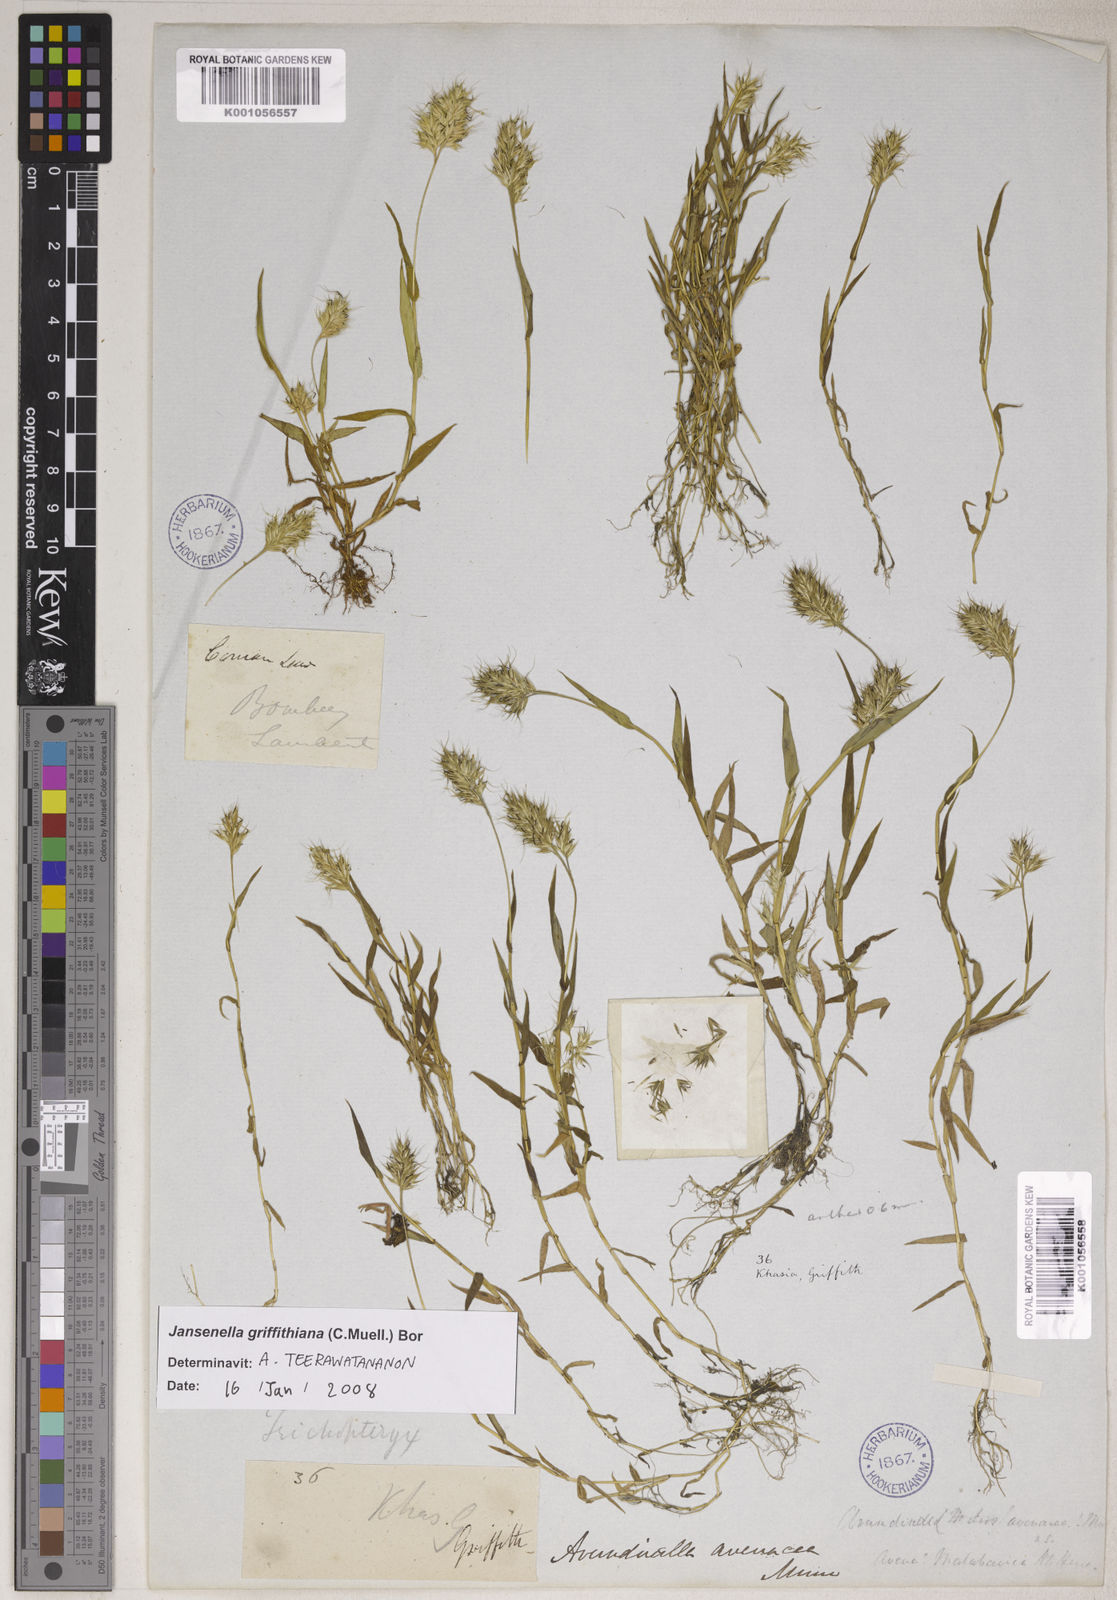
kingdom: Plantae
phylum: Tracheophyta
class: Liliopsida
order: Poales
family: Poaceae
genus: Jansenella
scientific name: Jansenella griffithiana
